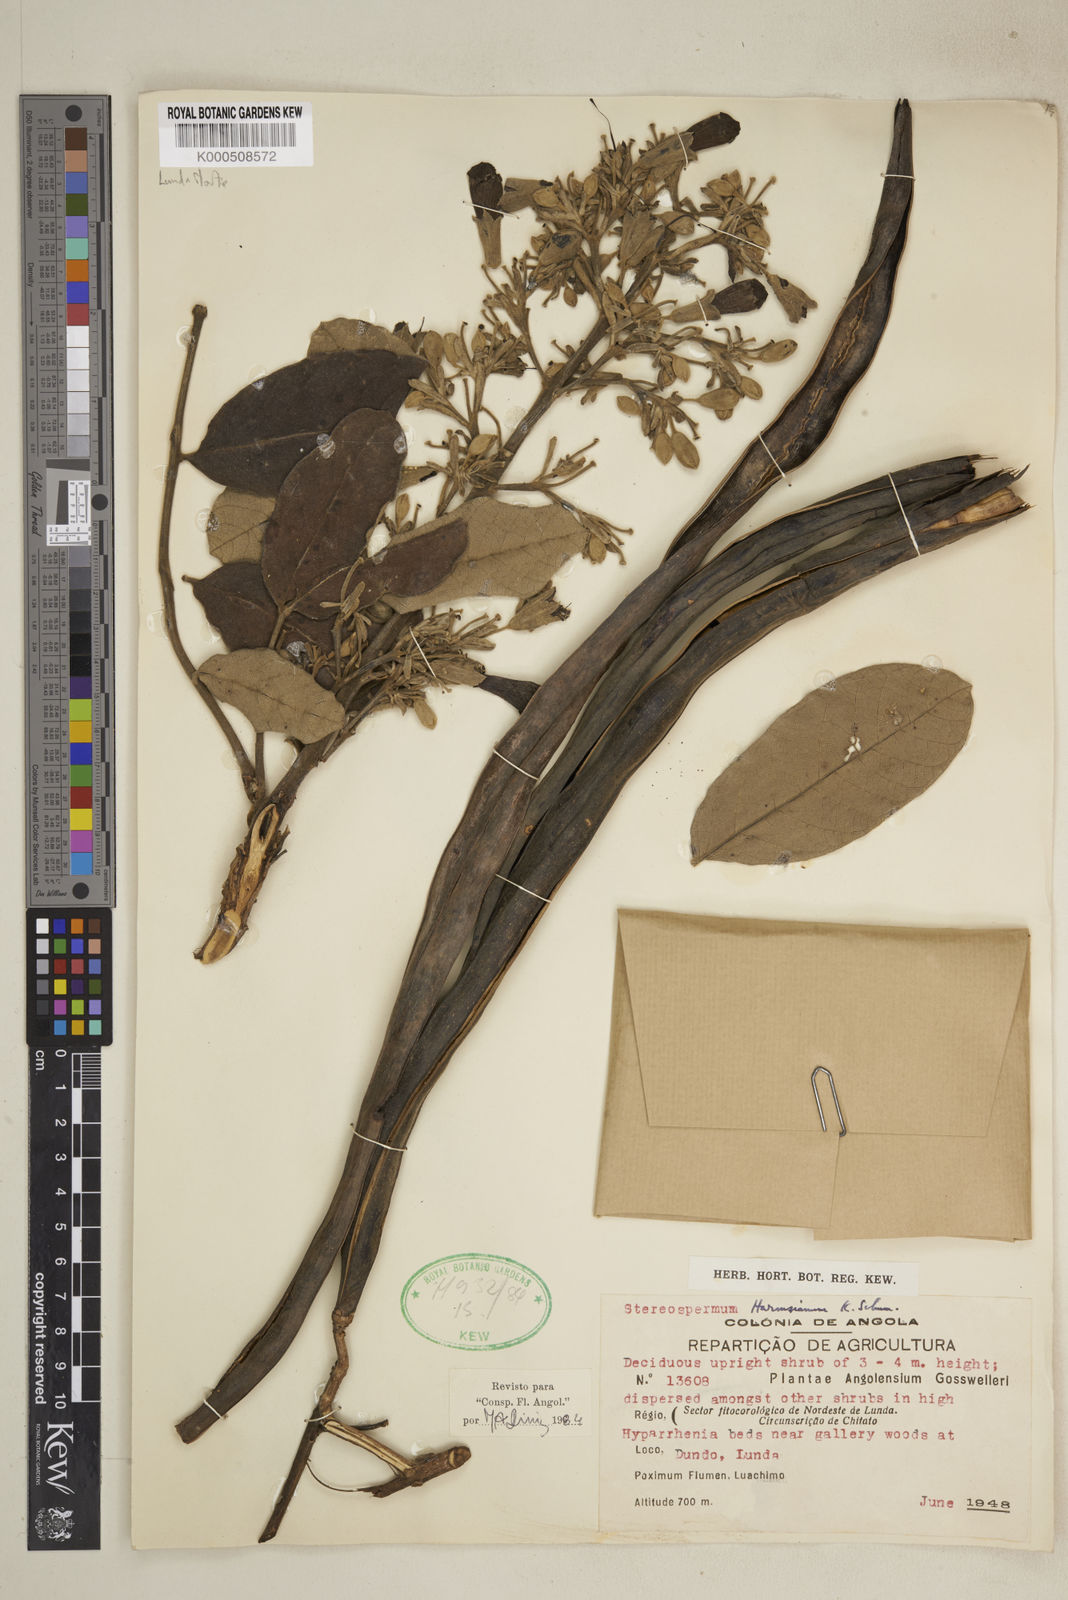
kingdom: Plantae
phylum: Tracheophyta
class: Magnoliopsida
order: Lamiales
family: Bignoniaceae
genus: Stereospermum
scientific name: Stereospermum harmsianum
